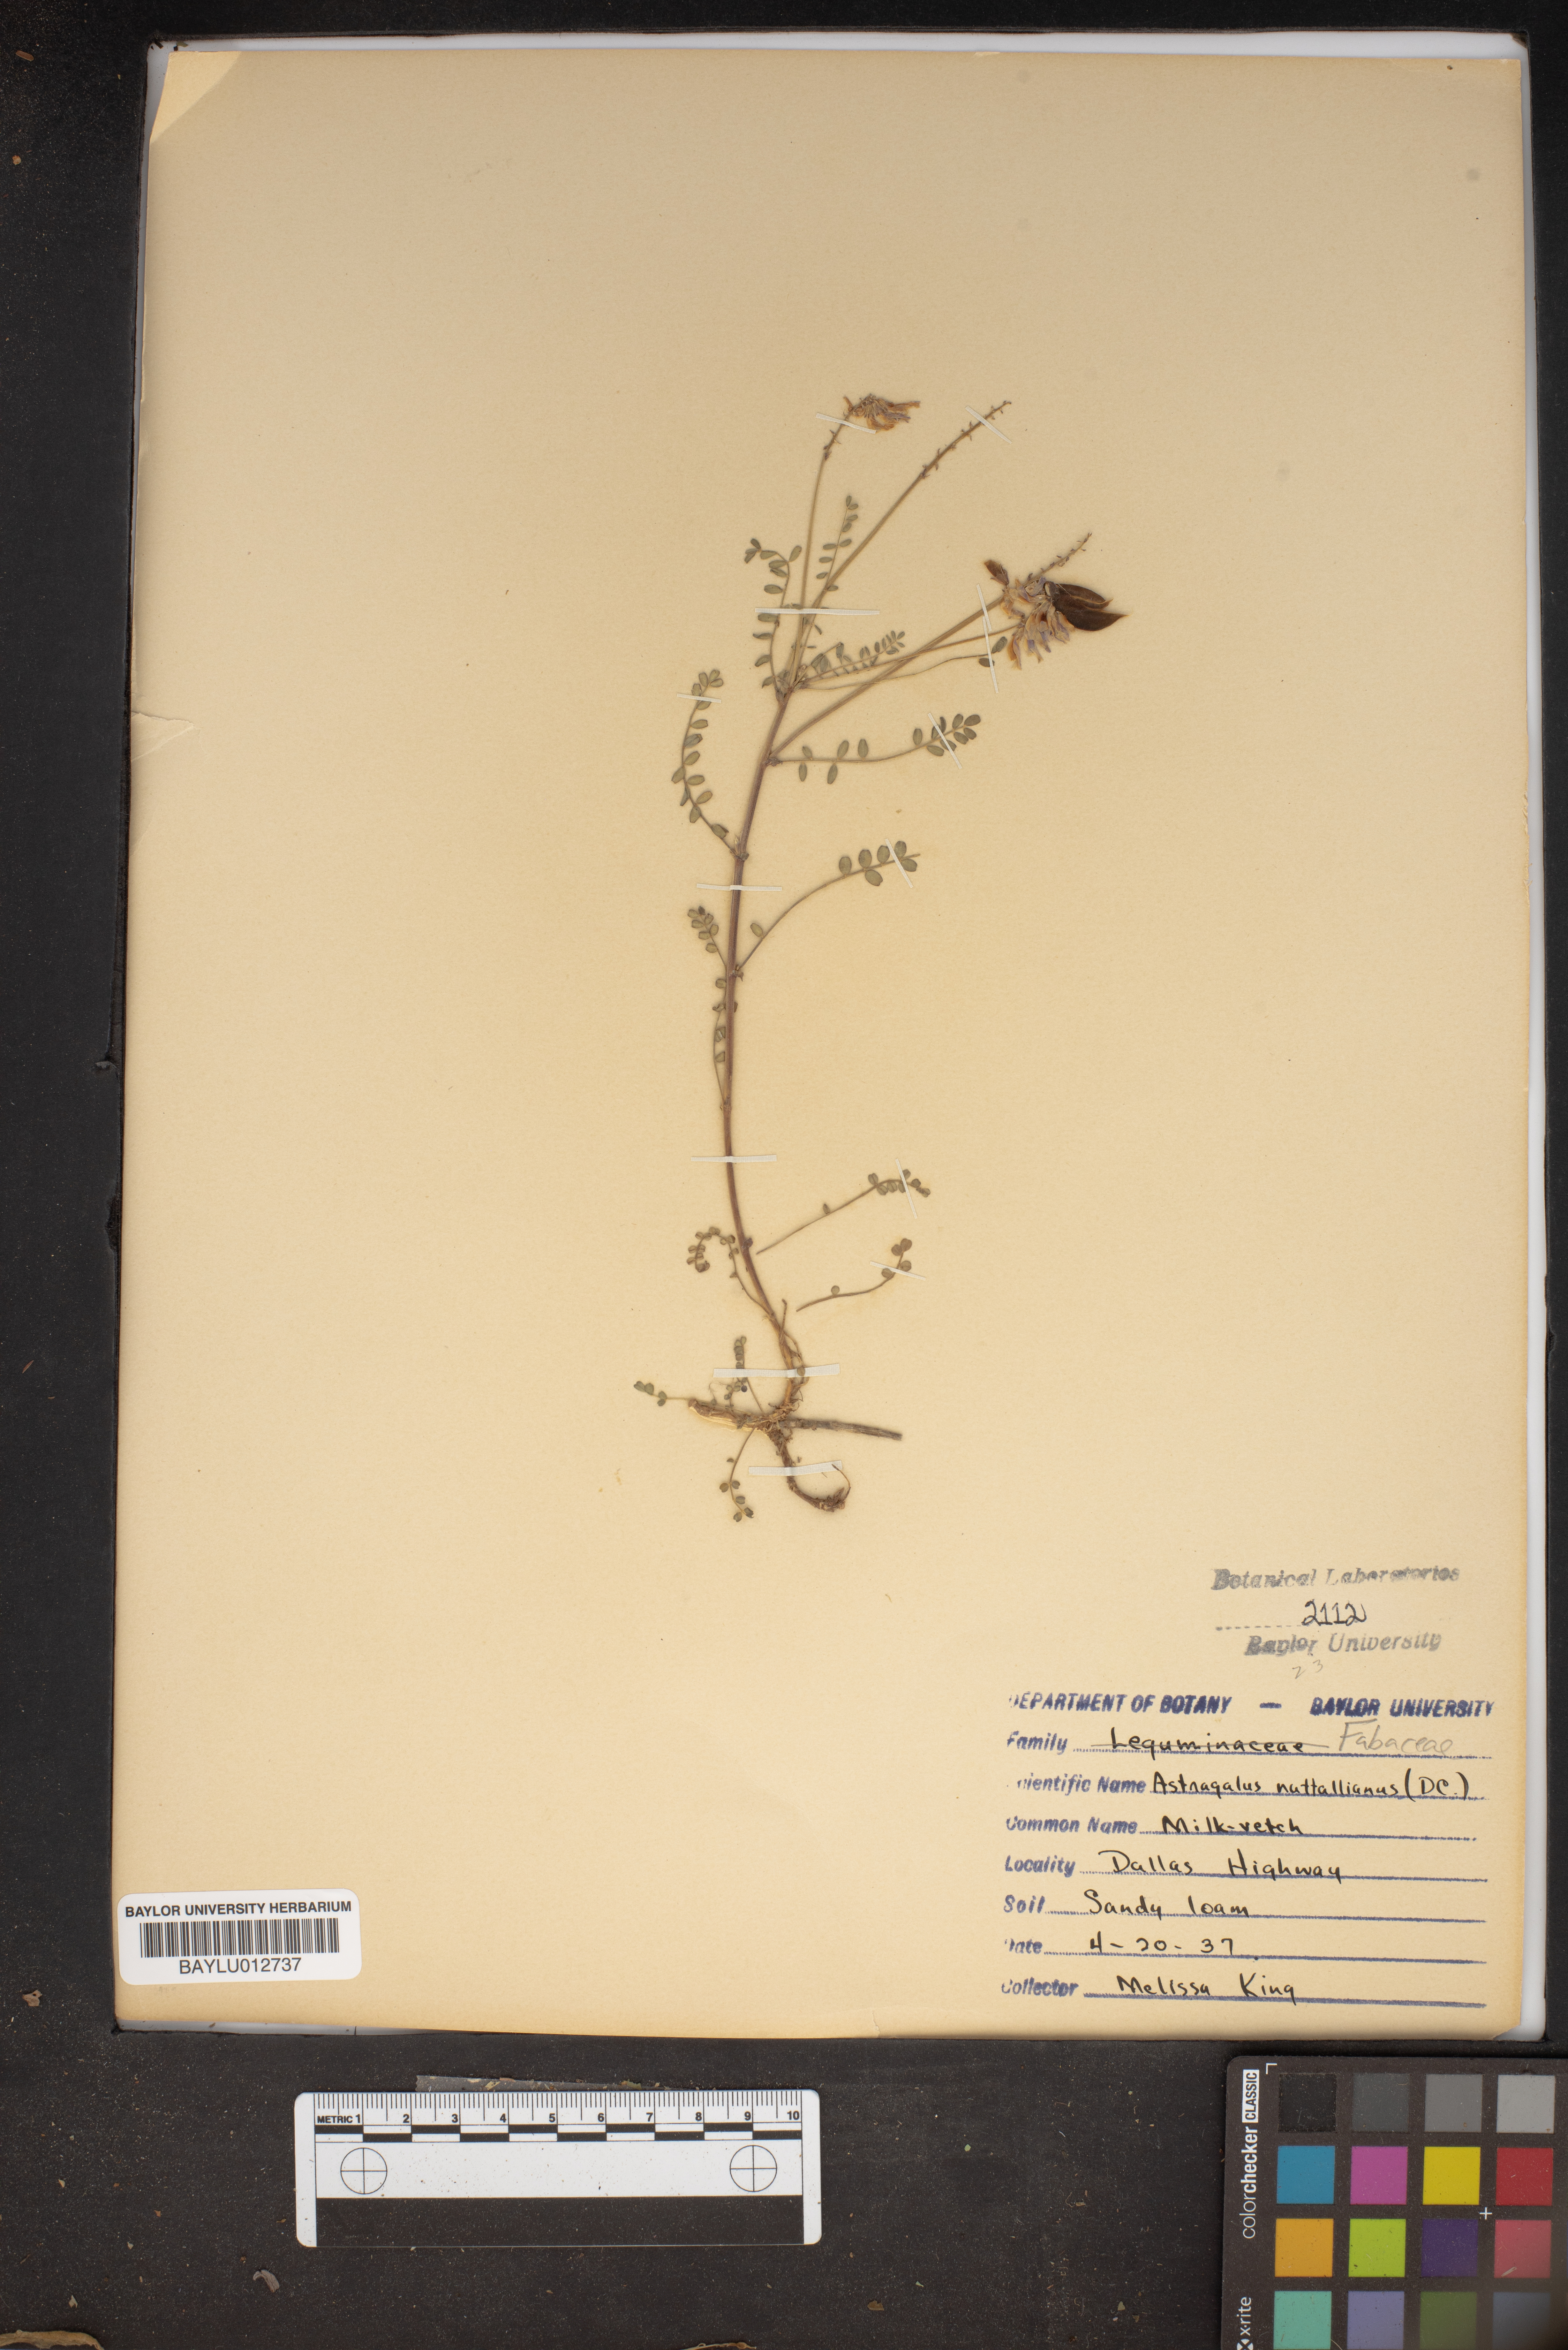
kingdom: Plantae
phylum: Tracheophyta
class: Magnoliopsida
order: Fabales
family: Fabaceae
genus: Astragalus
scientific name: Astragalus nuttallianus
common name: Smallflowered milkvetch
